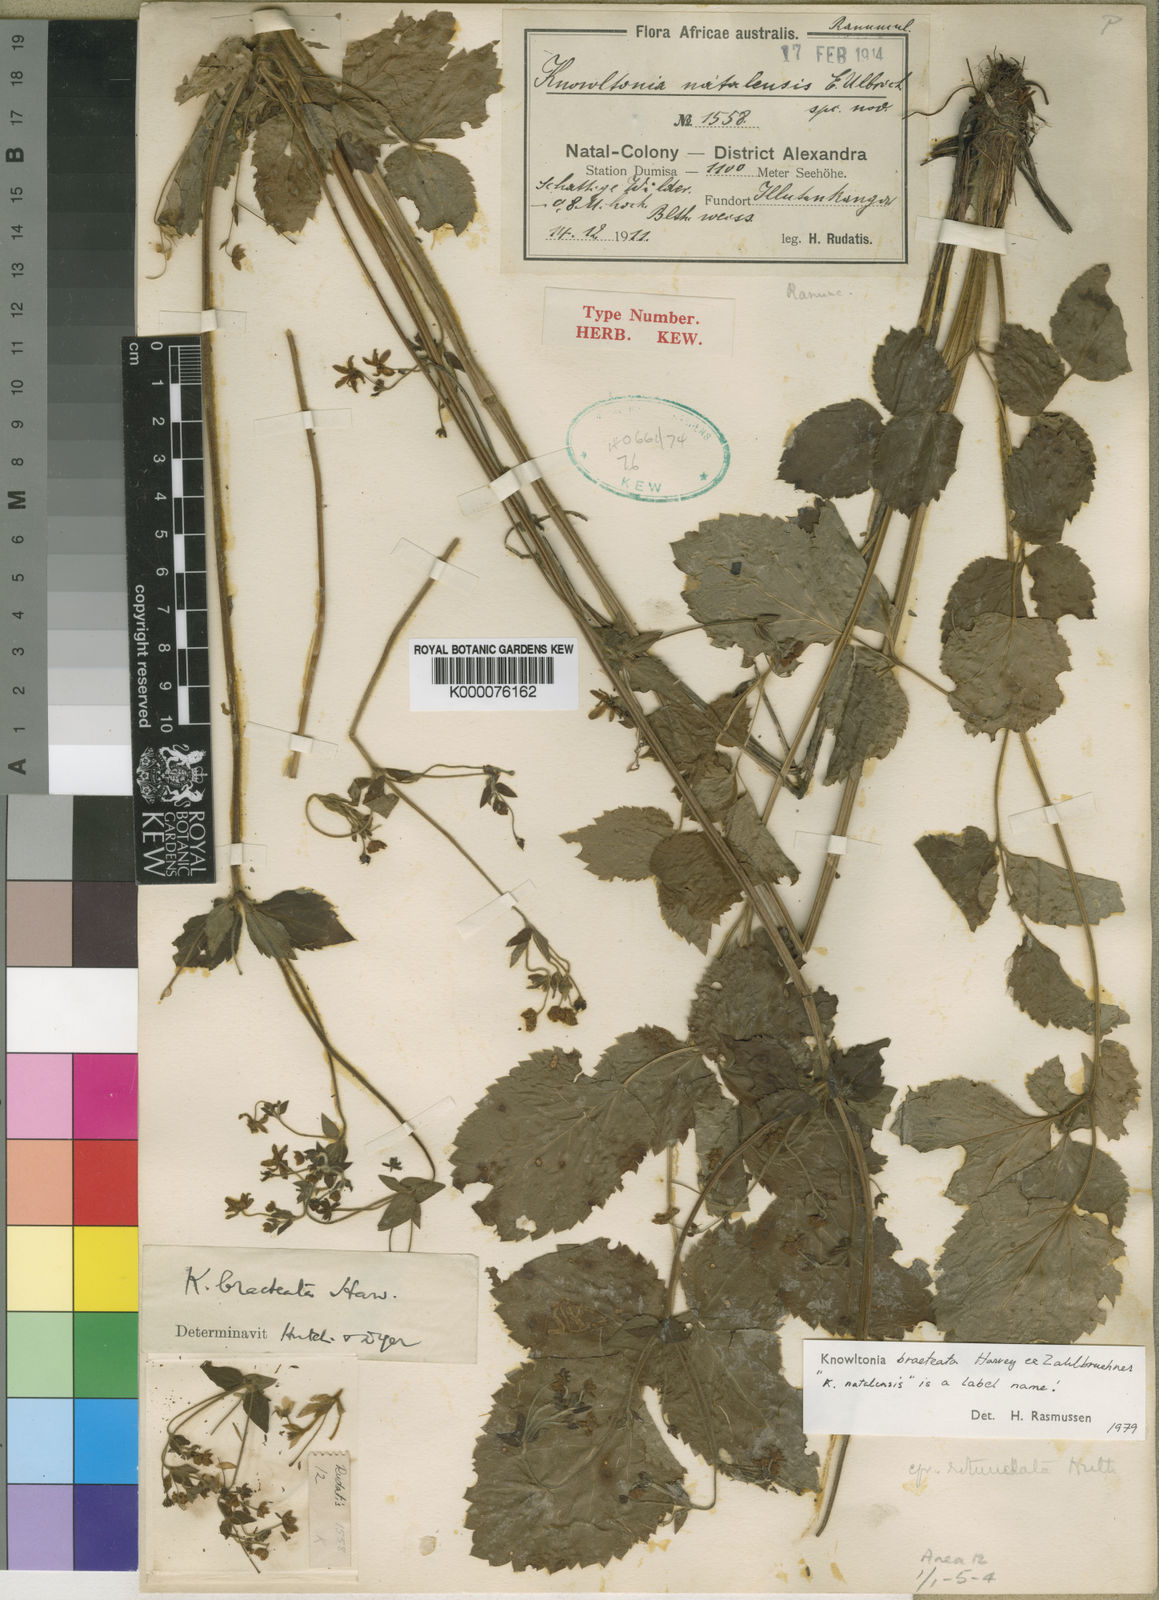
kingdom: Plantae
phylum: Tracheophyta
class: Magnoliopsida
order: Ranunculales
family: Ranunculaceae
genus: Knowltonia
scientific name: Knowltonia bracteata
